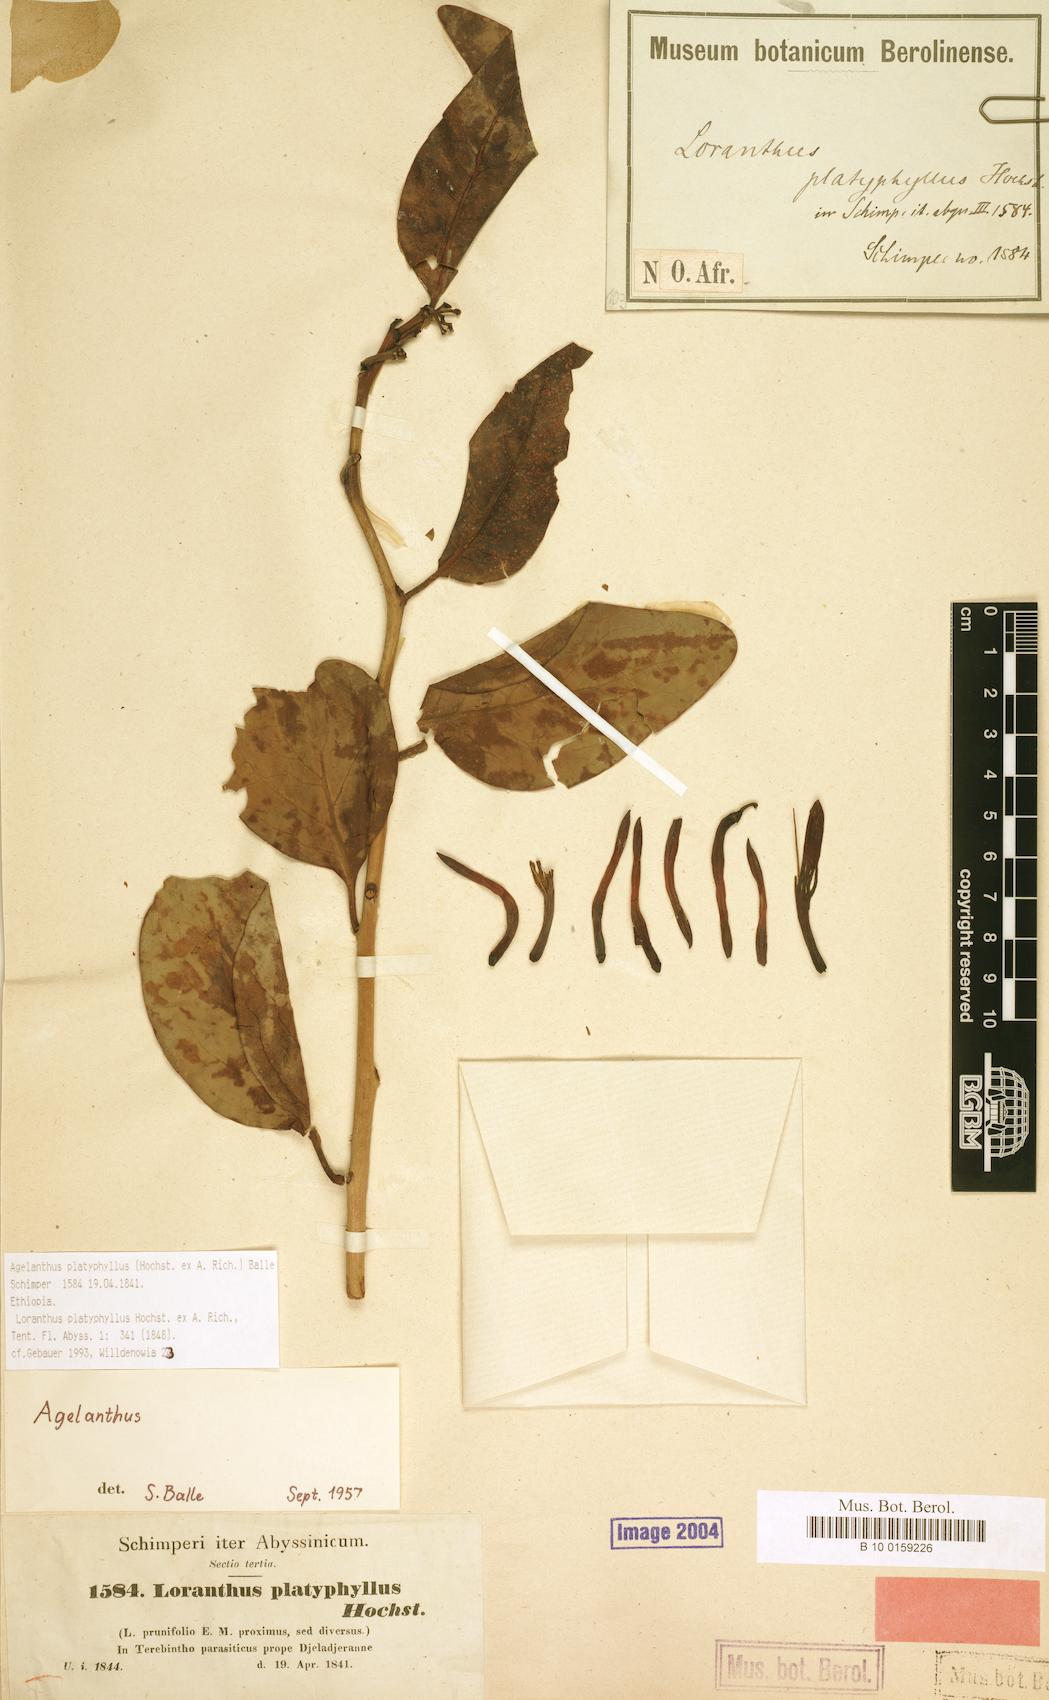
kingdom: Plantae
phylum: Tracheophyta
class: Magnoliopsida
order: Santalales
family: Loranthaceae
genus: Agelanthus
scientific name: Agelanthus platyphyllus
